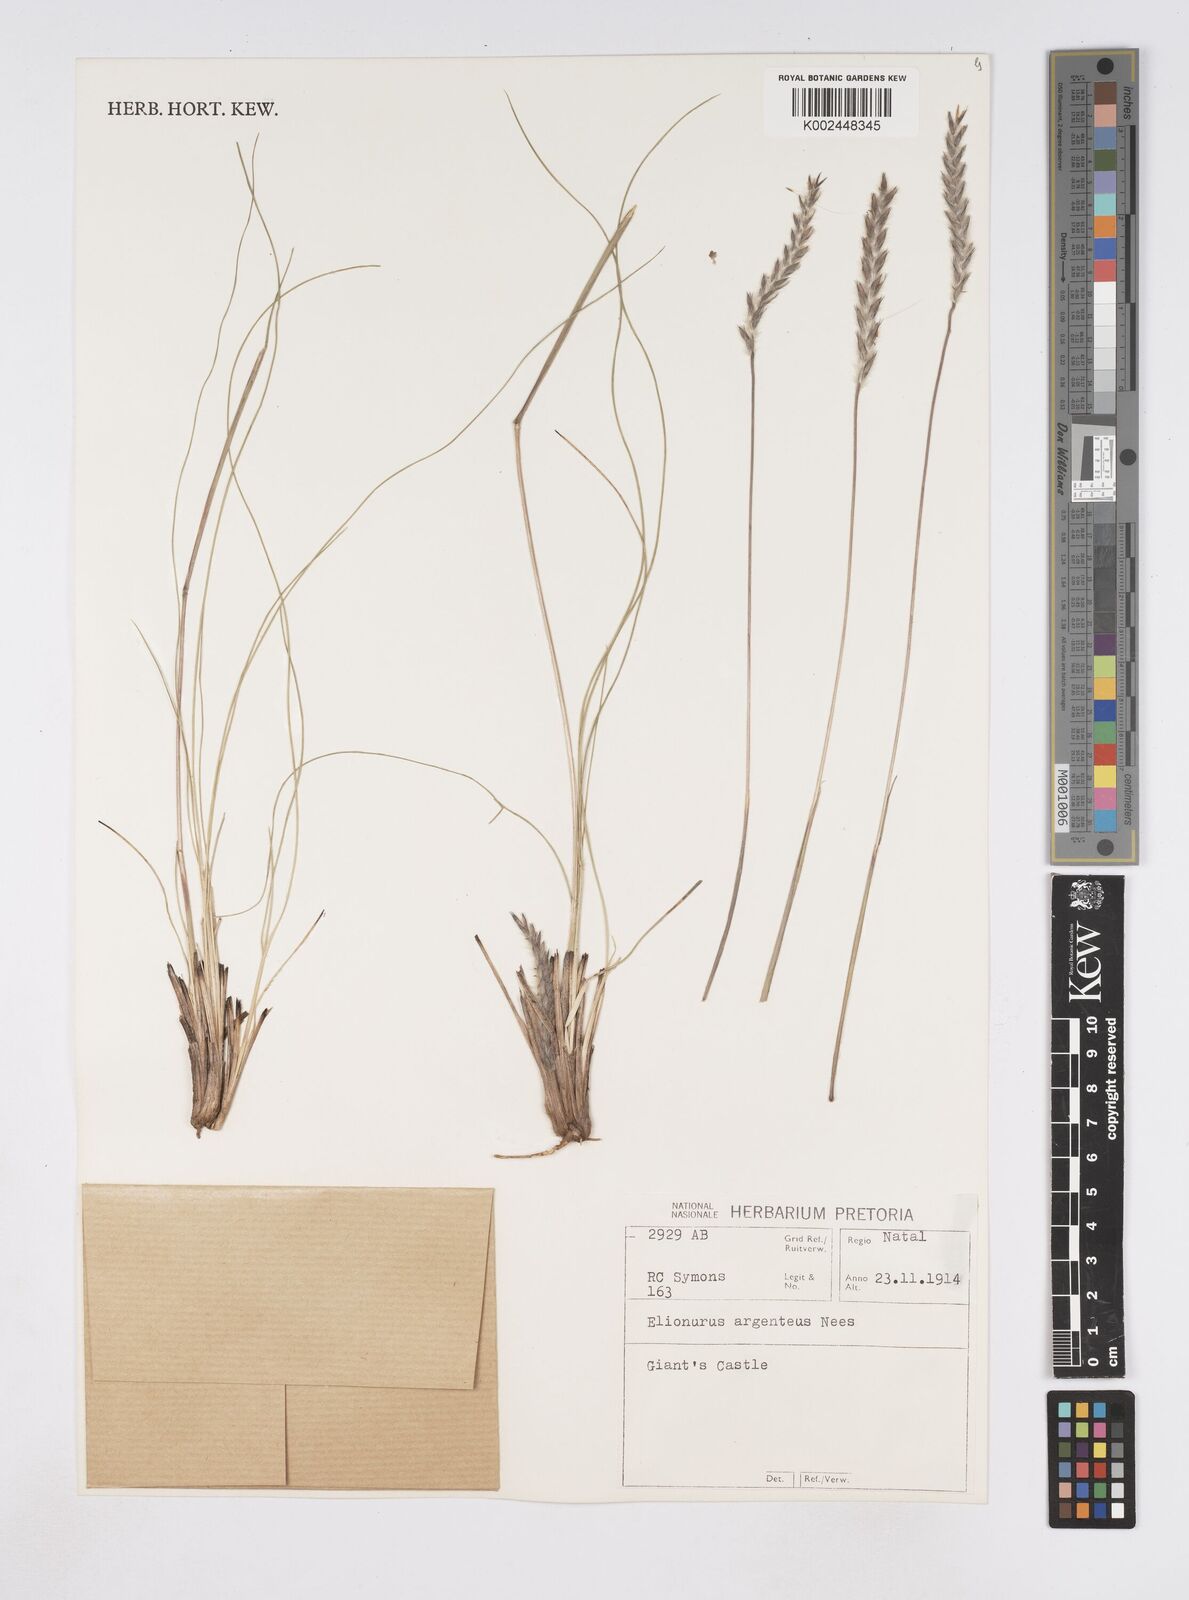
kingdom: Plantae
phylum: Tracheophyta
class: Liliopsida
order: Poales
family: Poaceae
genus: Elionurus
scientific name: Elionurus muticus
